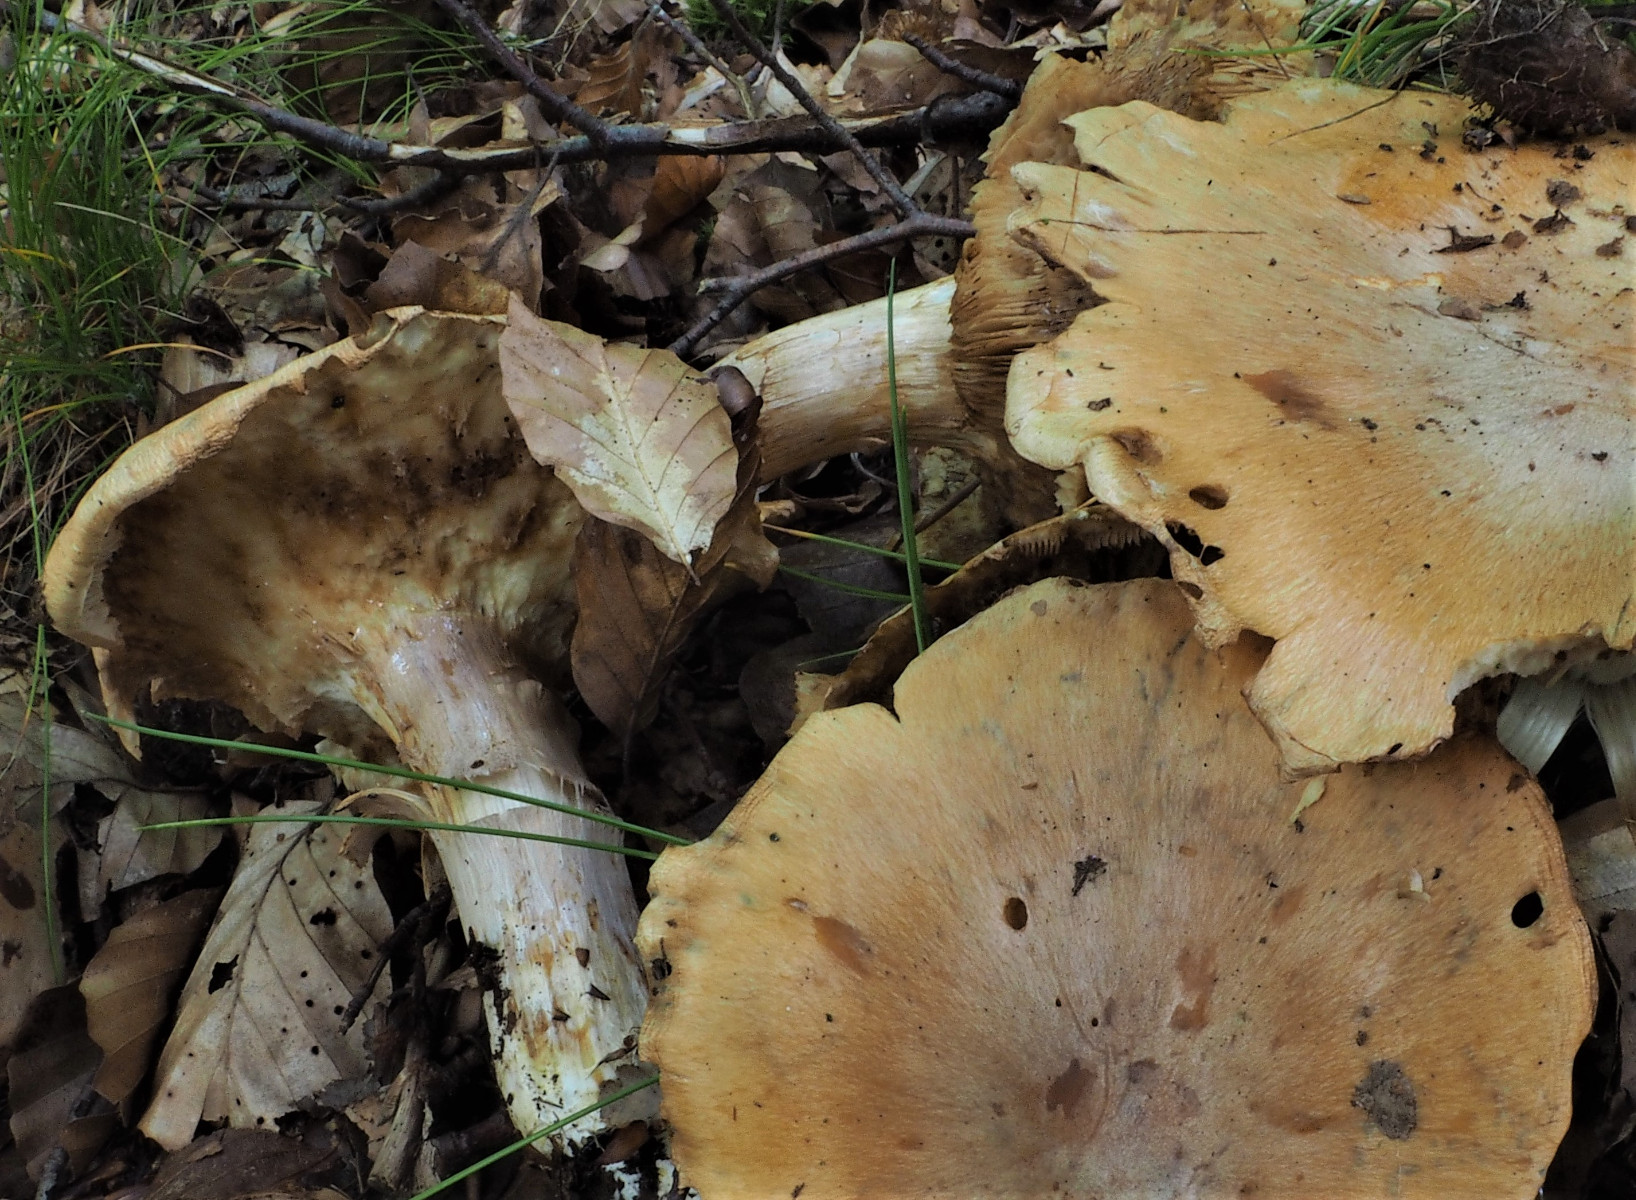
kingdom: Fungi
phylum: Basidiomycota
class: Agaricomycetes
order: Agaricales
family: Cortinariaceae
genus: Cortinarius
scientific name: Cortinarius caperatus
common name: klidhat
